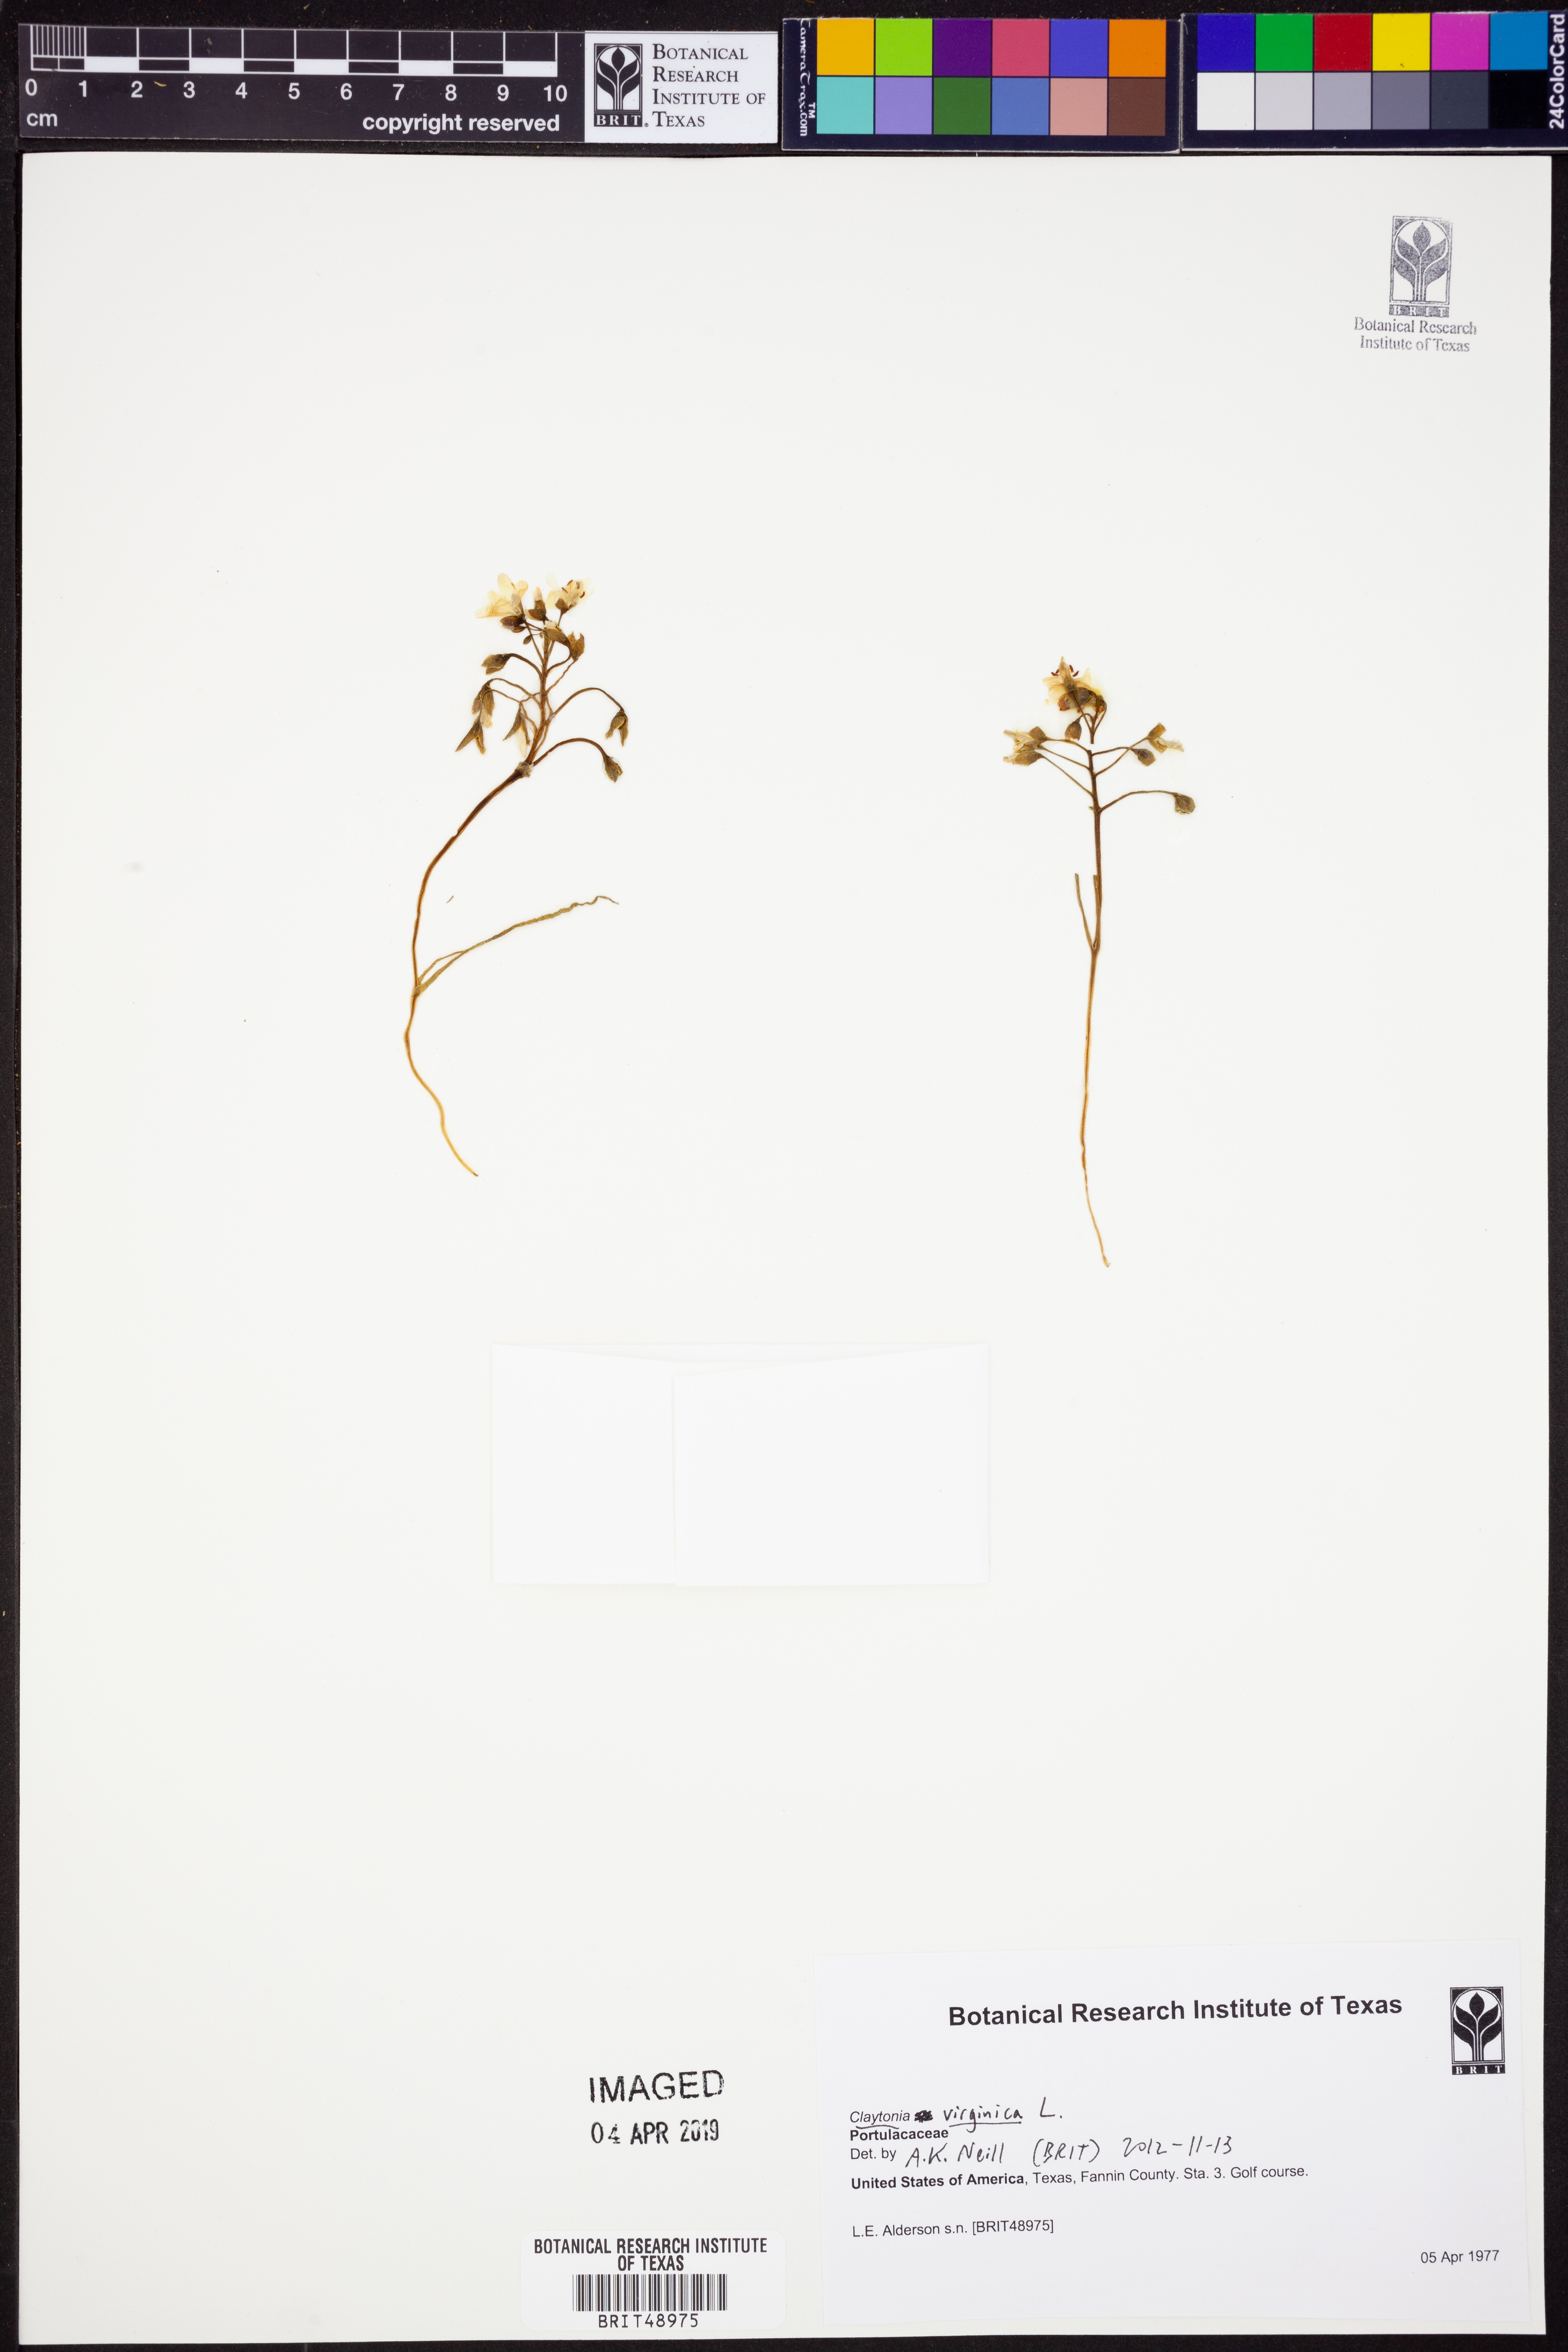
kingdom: Plantae
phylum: Tracheophyta
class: Magnoliopsida
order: Caryophyllales
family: Montiaceae
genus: Claytonia
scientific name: Claytonia virginica
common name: Virginia springbeauty
